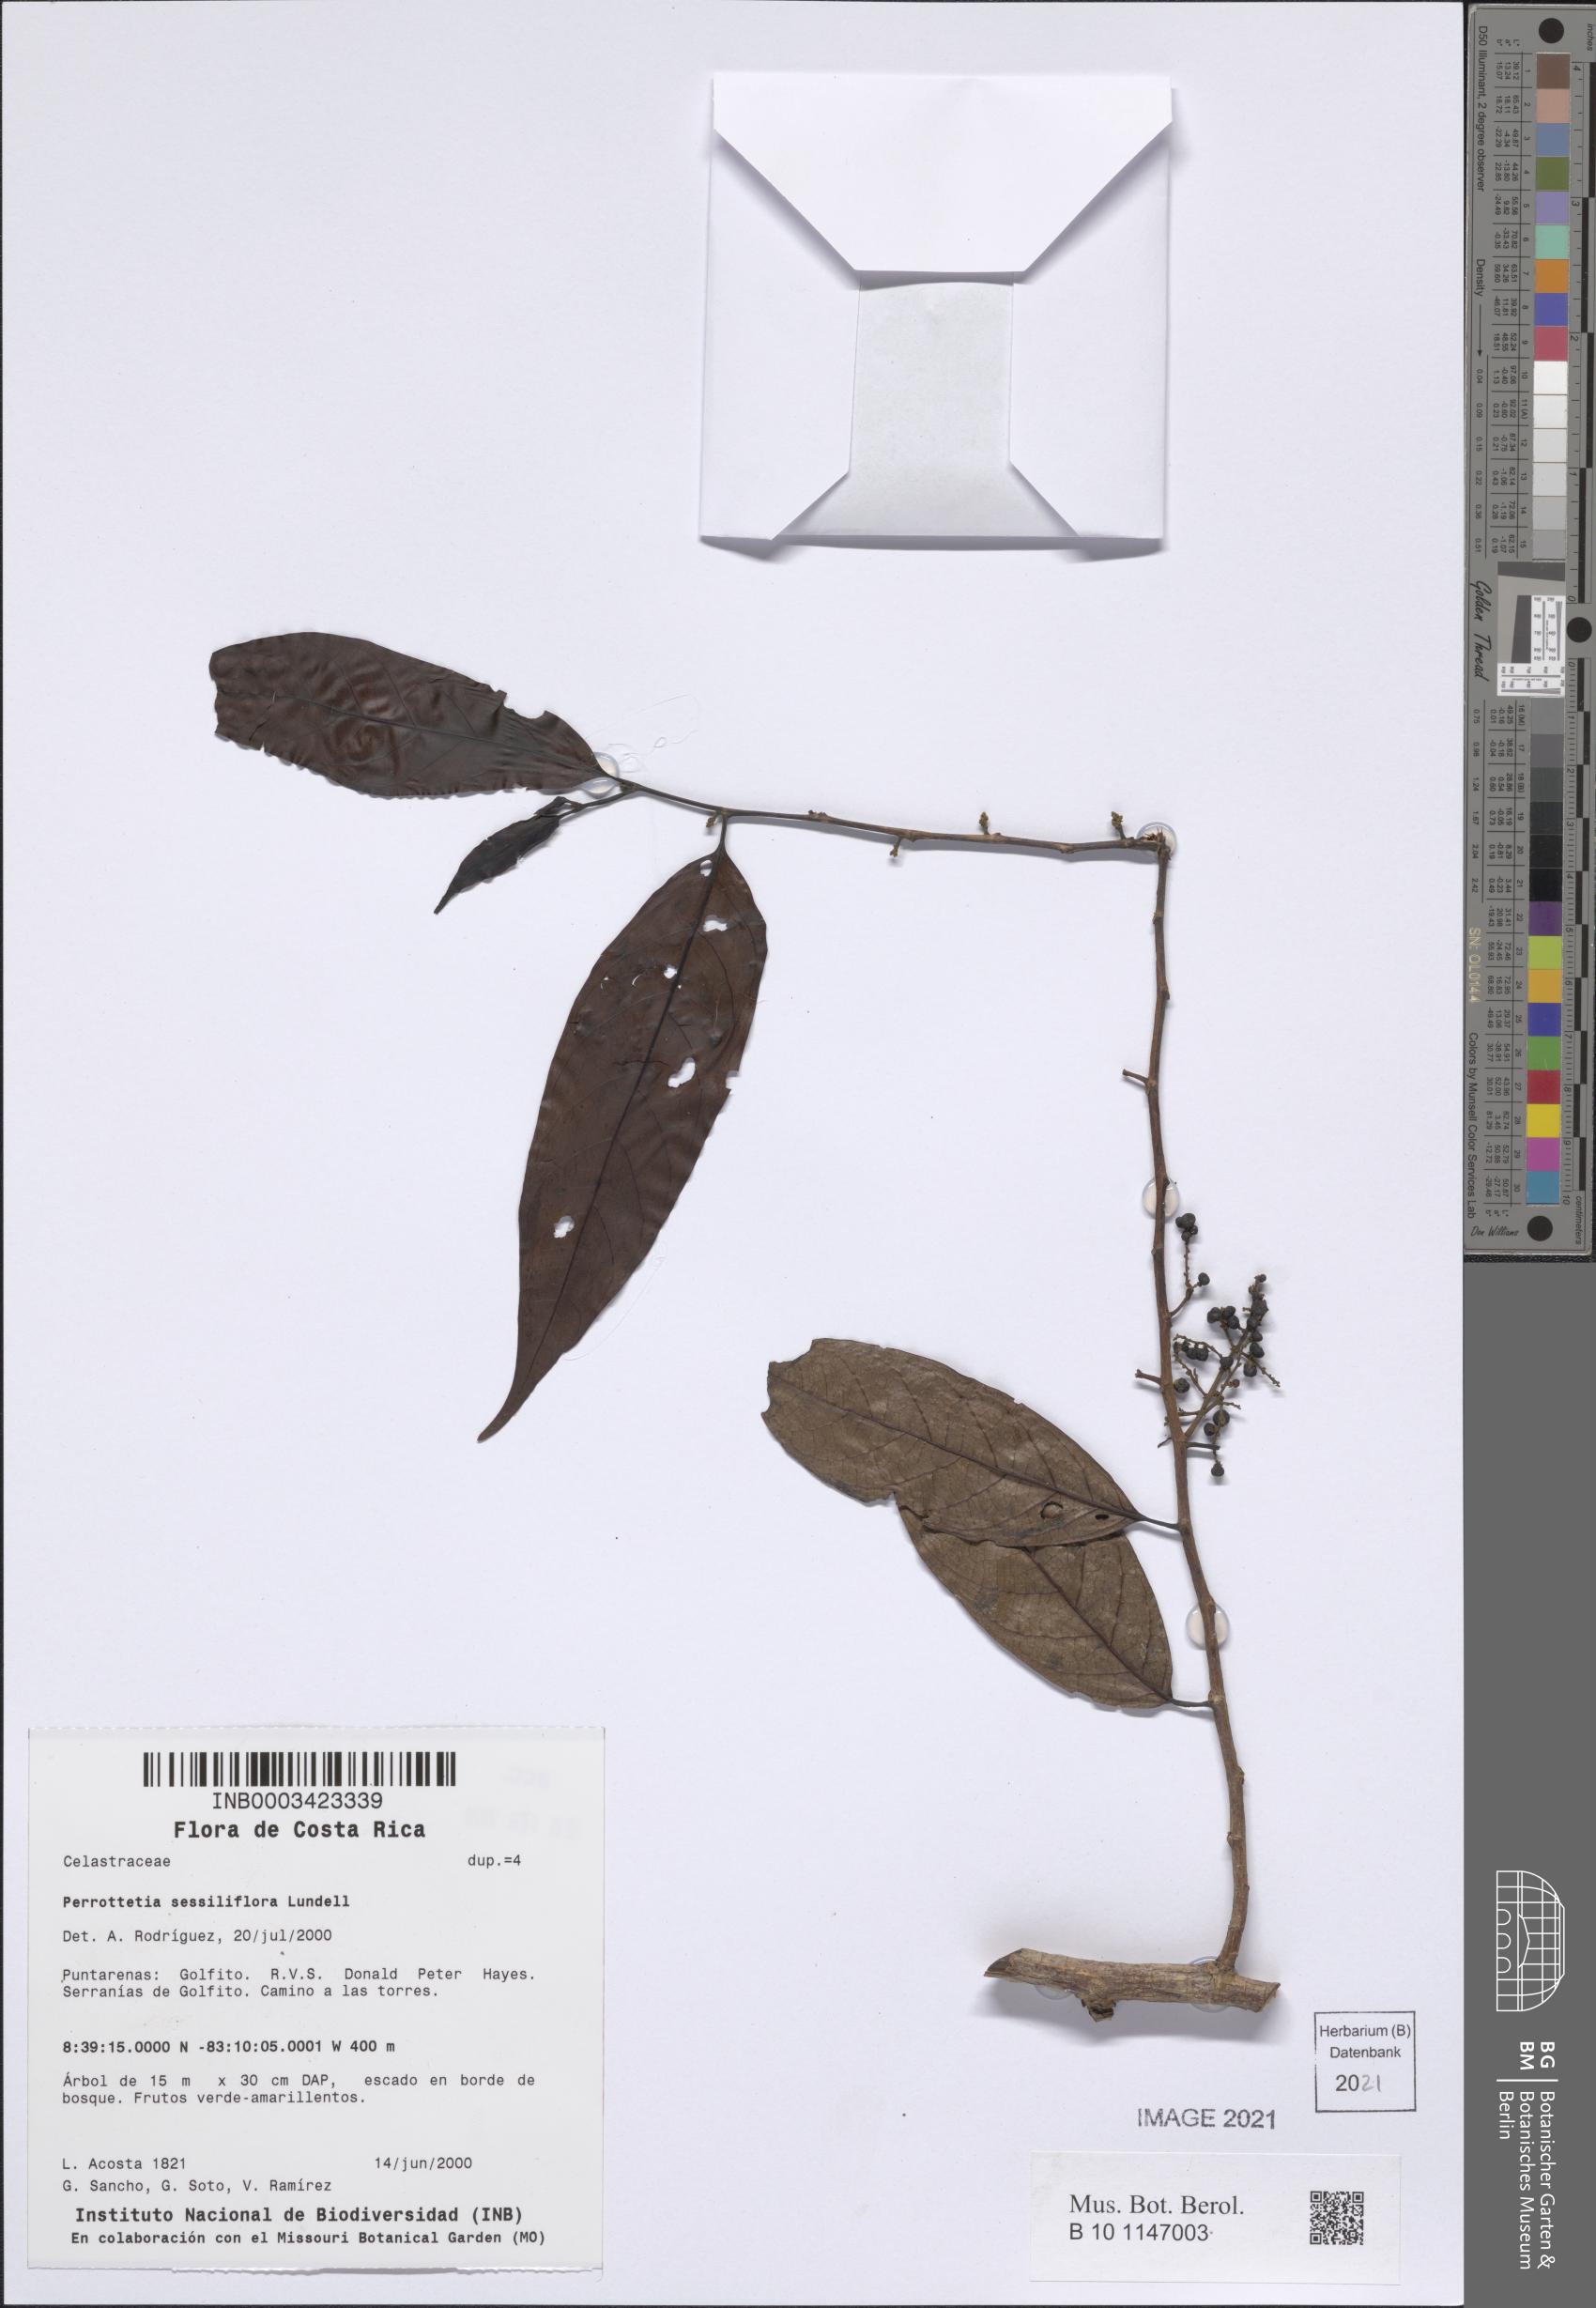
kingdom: Plantae
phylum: Tracheophyta
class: Magnoliopsida
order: Huerteales
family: Dipentodontaceae
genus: Perrottetia
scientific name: Perrottetia sessiliflora
